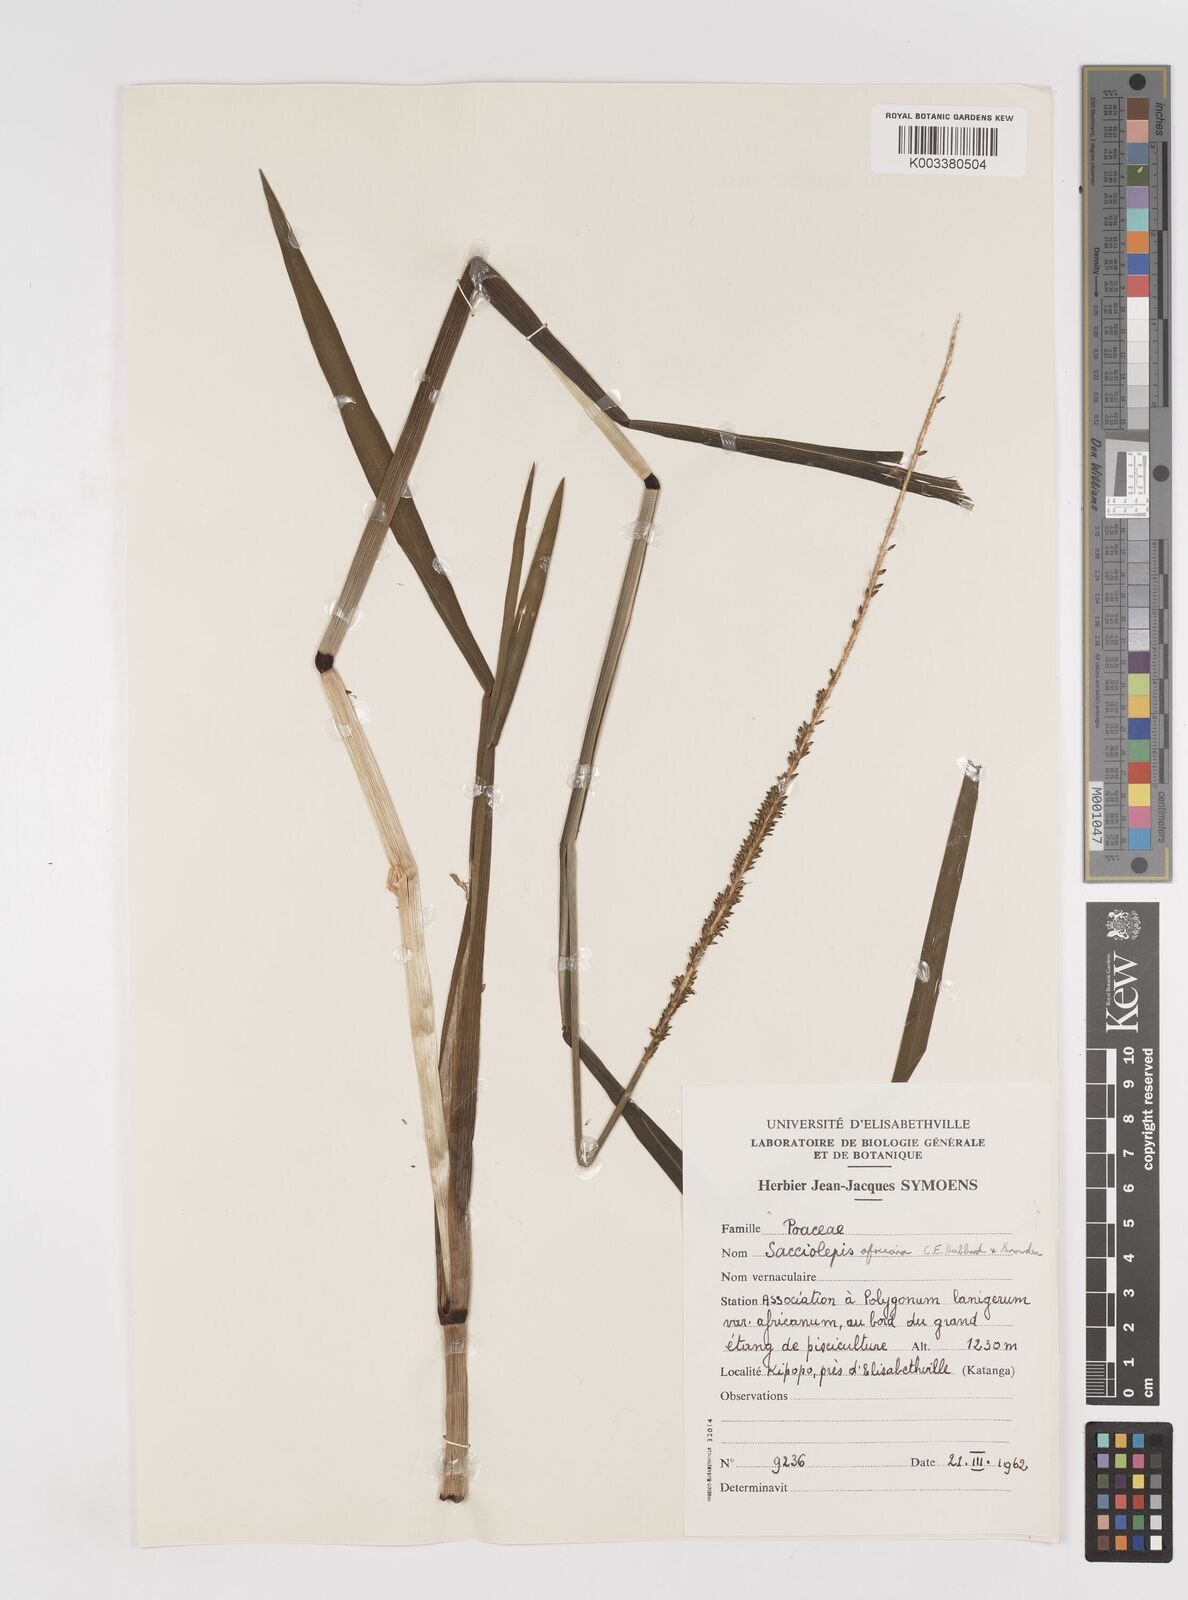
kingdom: Plantae
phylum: Tracheophyta
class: Liliopsida
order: Poales
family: Poaceae
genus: Sacciolepis
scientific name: Sacciolepis africana
